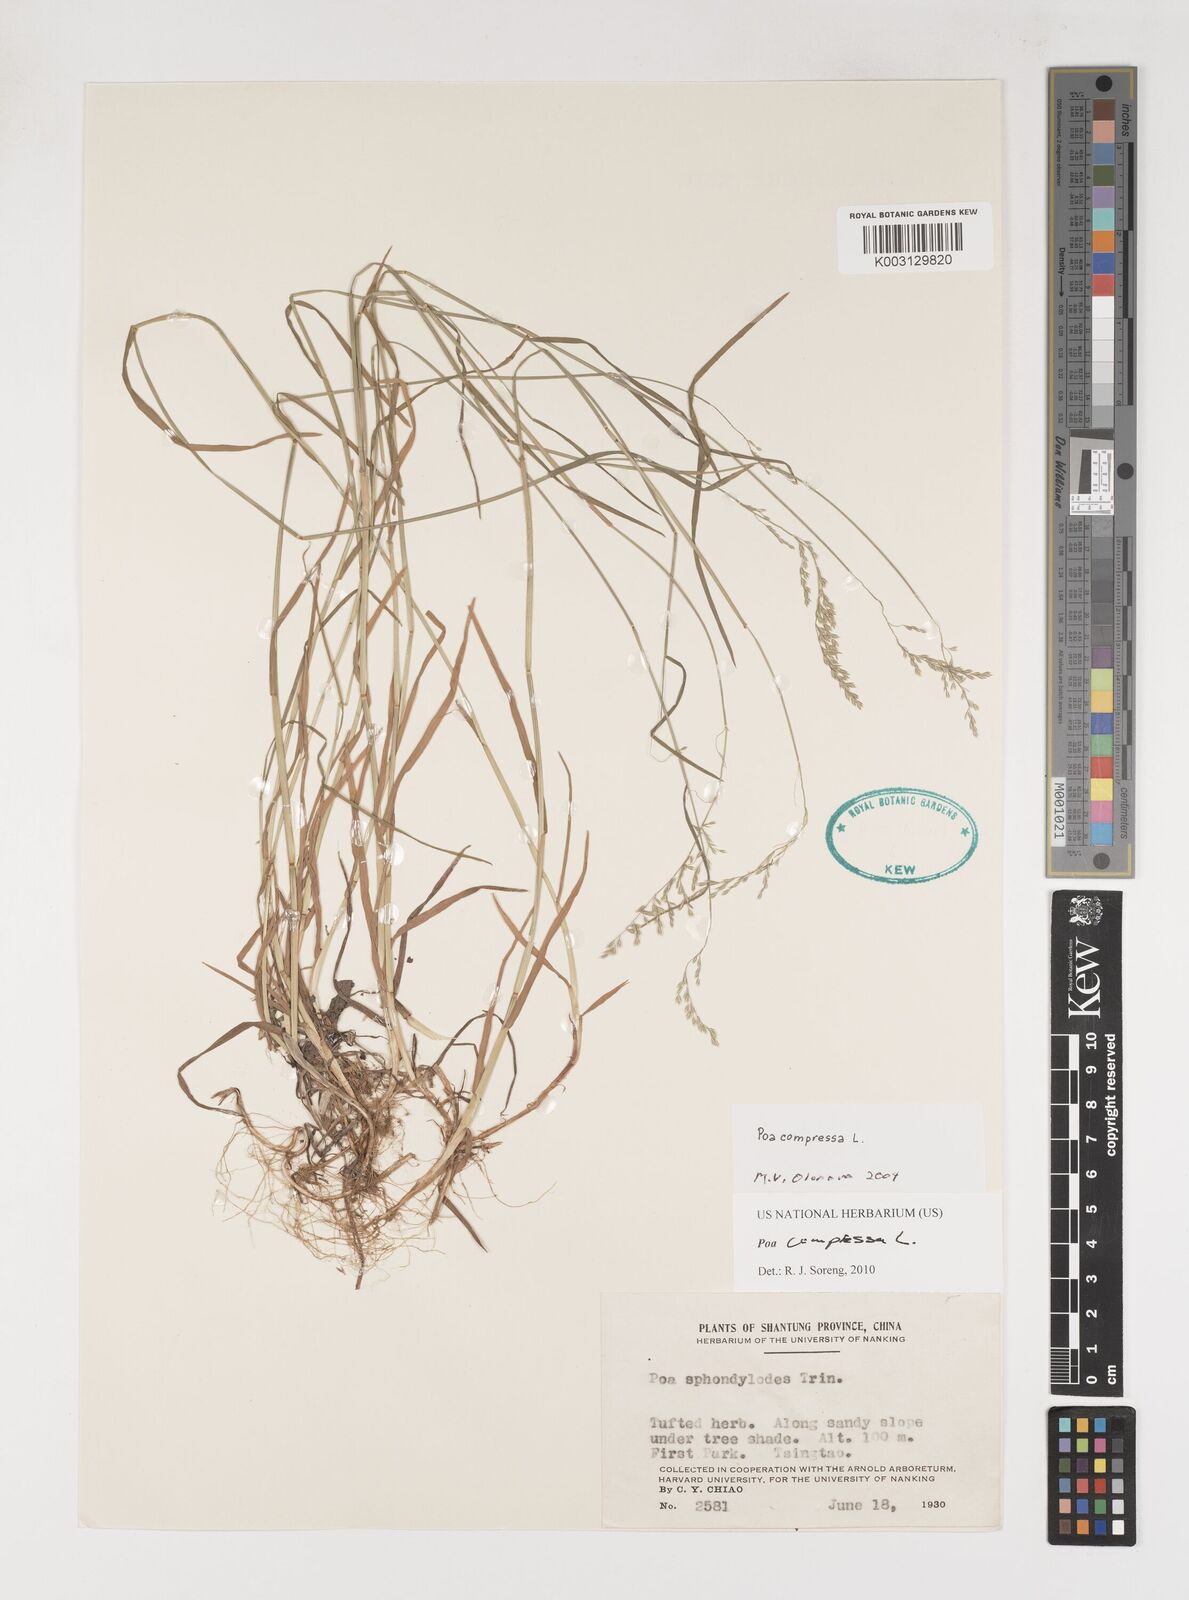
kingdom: Plantae
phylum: Tracheophyta
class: Liliopsida
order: Poales
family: Poaceae
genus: Poa
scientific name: Poa compressa
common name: Canada bluegrass
